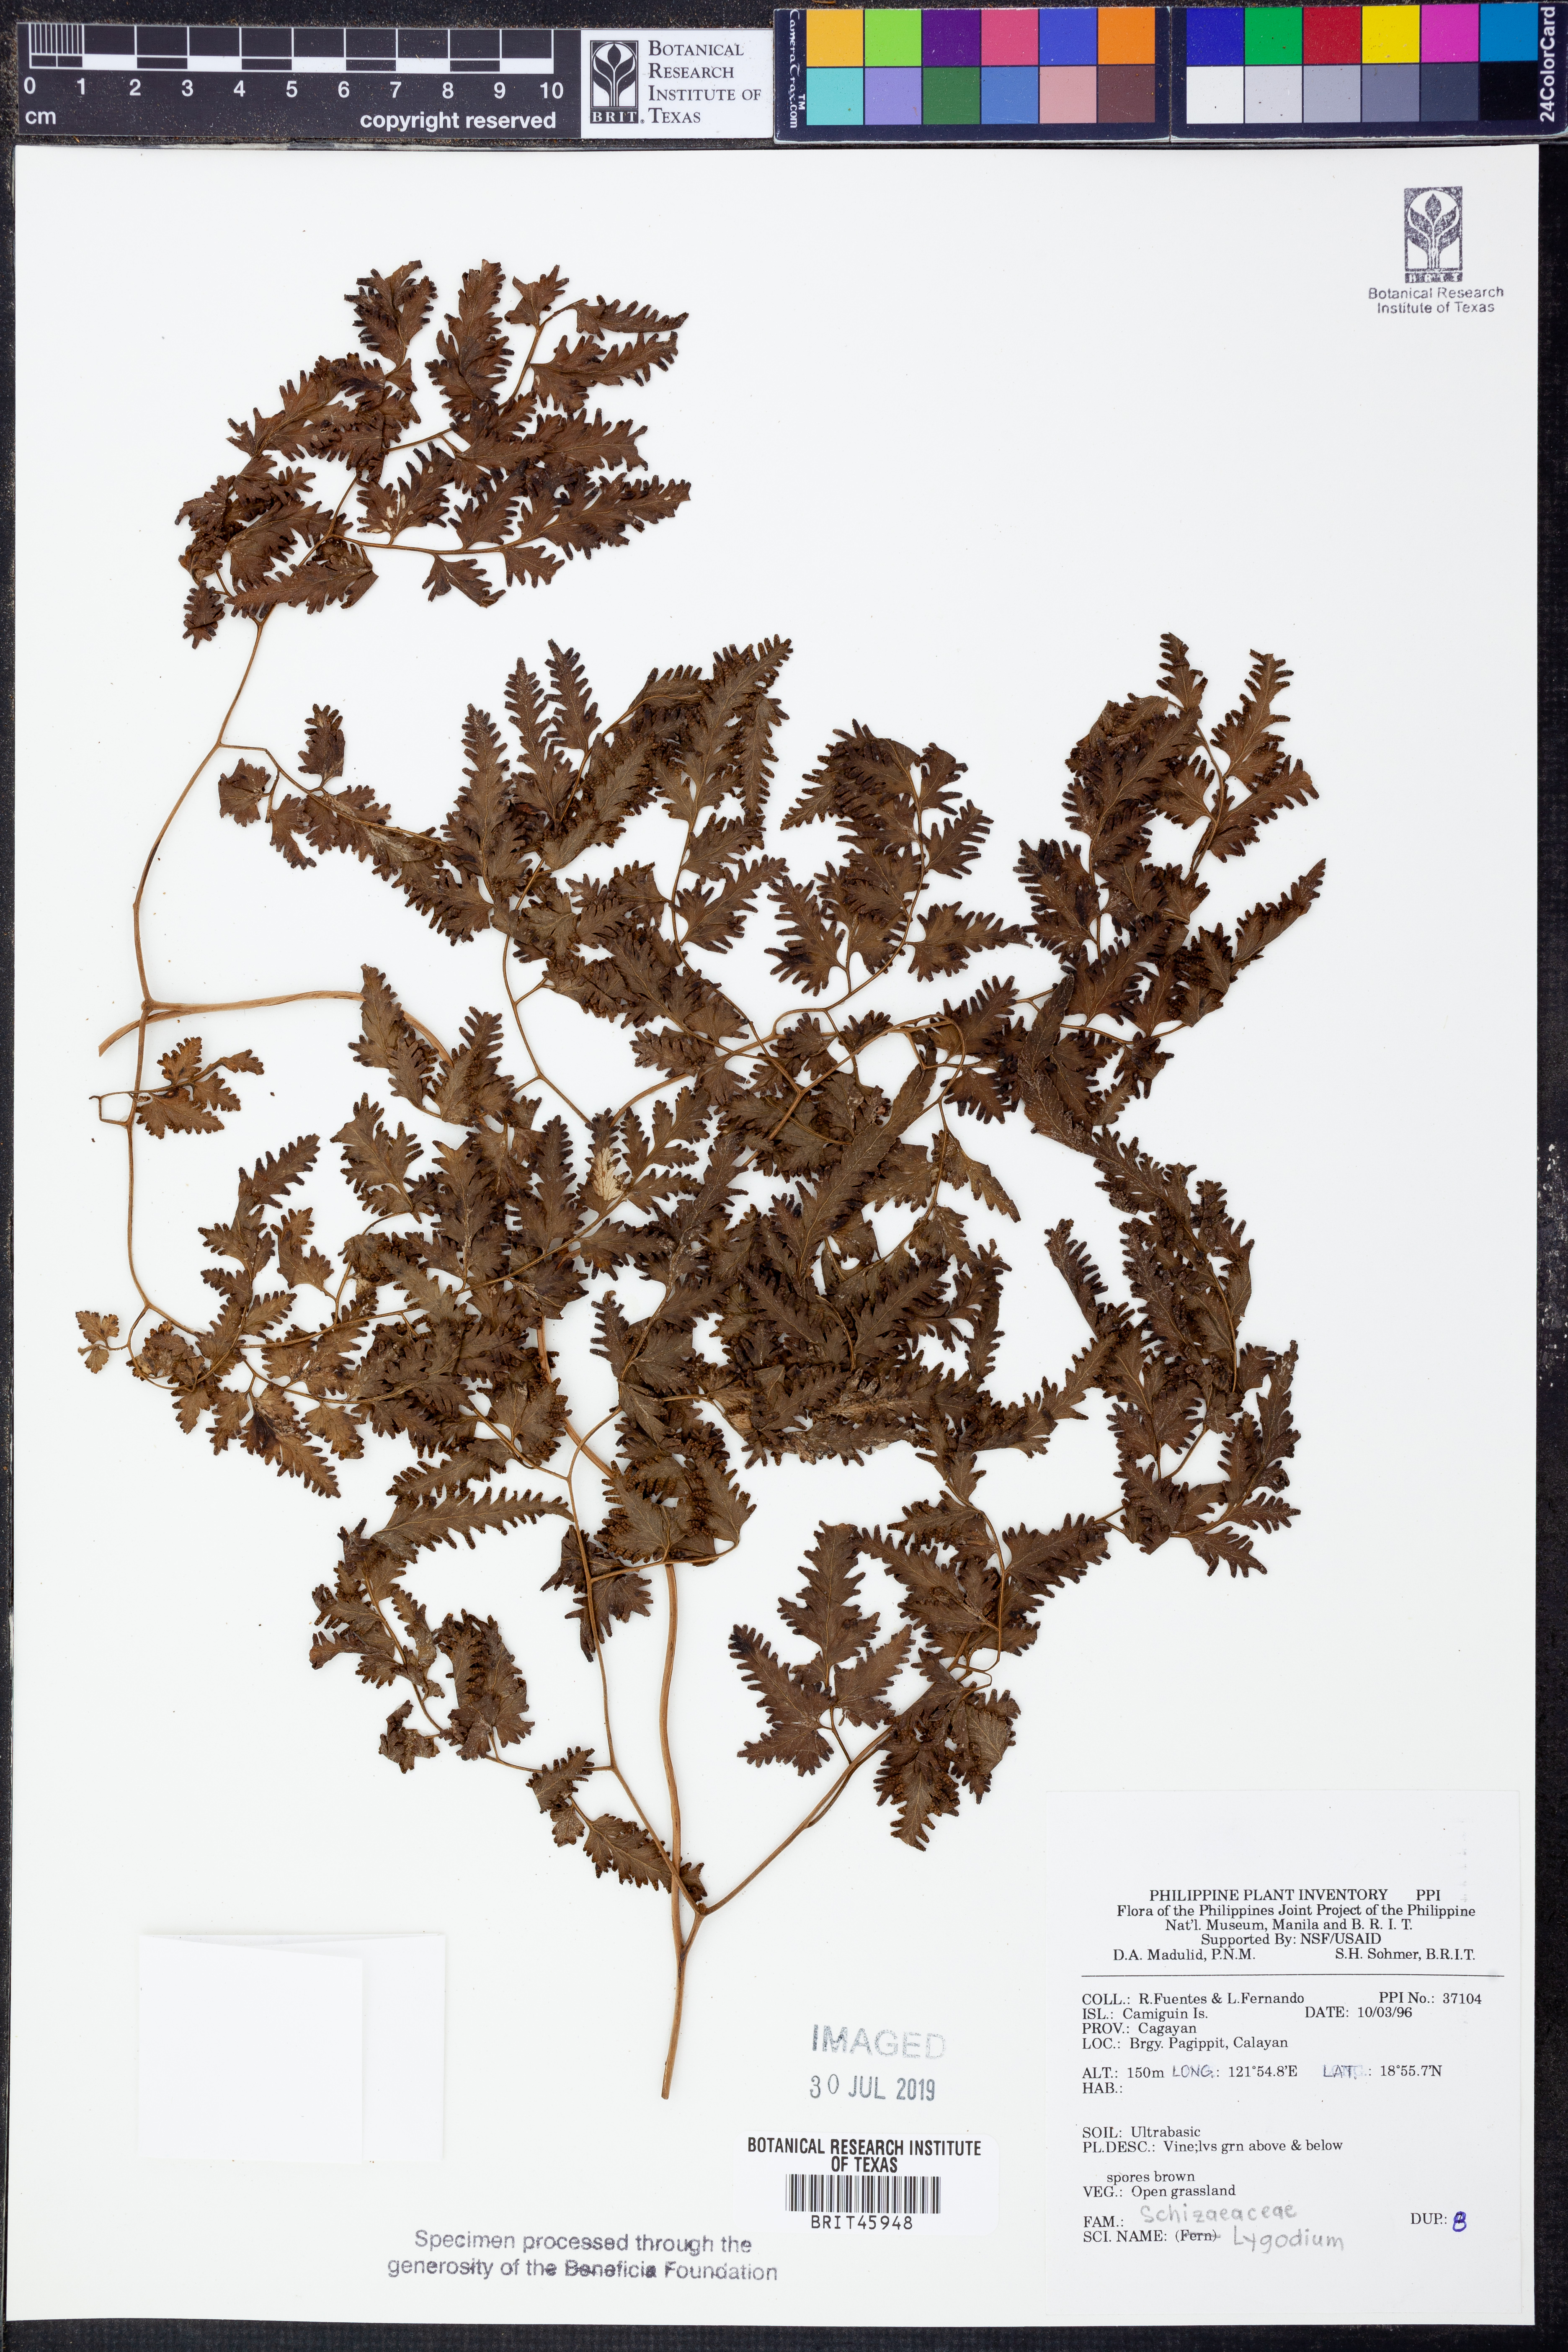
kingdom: Plantae
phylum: Tracheophyta
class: Polypodiopsida
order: Schizaeales
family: Lygodiaceae
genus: Lygodium
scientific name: Lygodium
